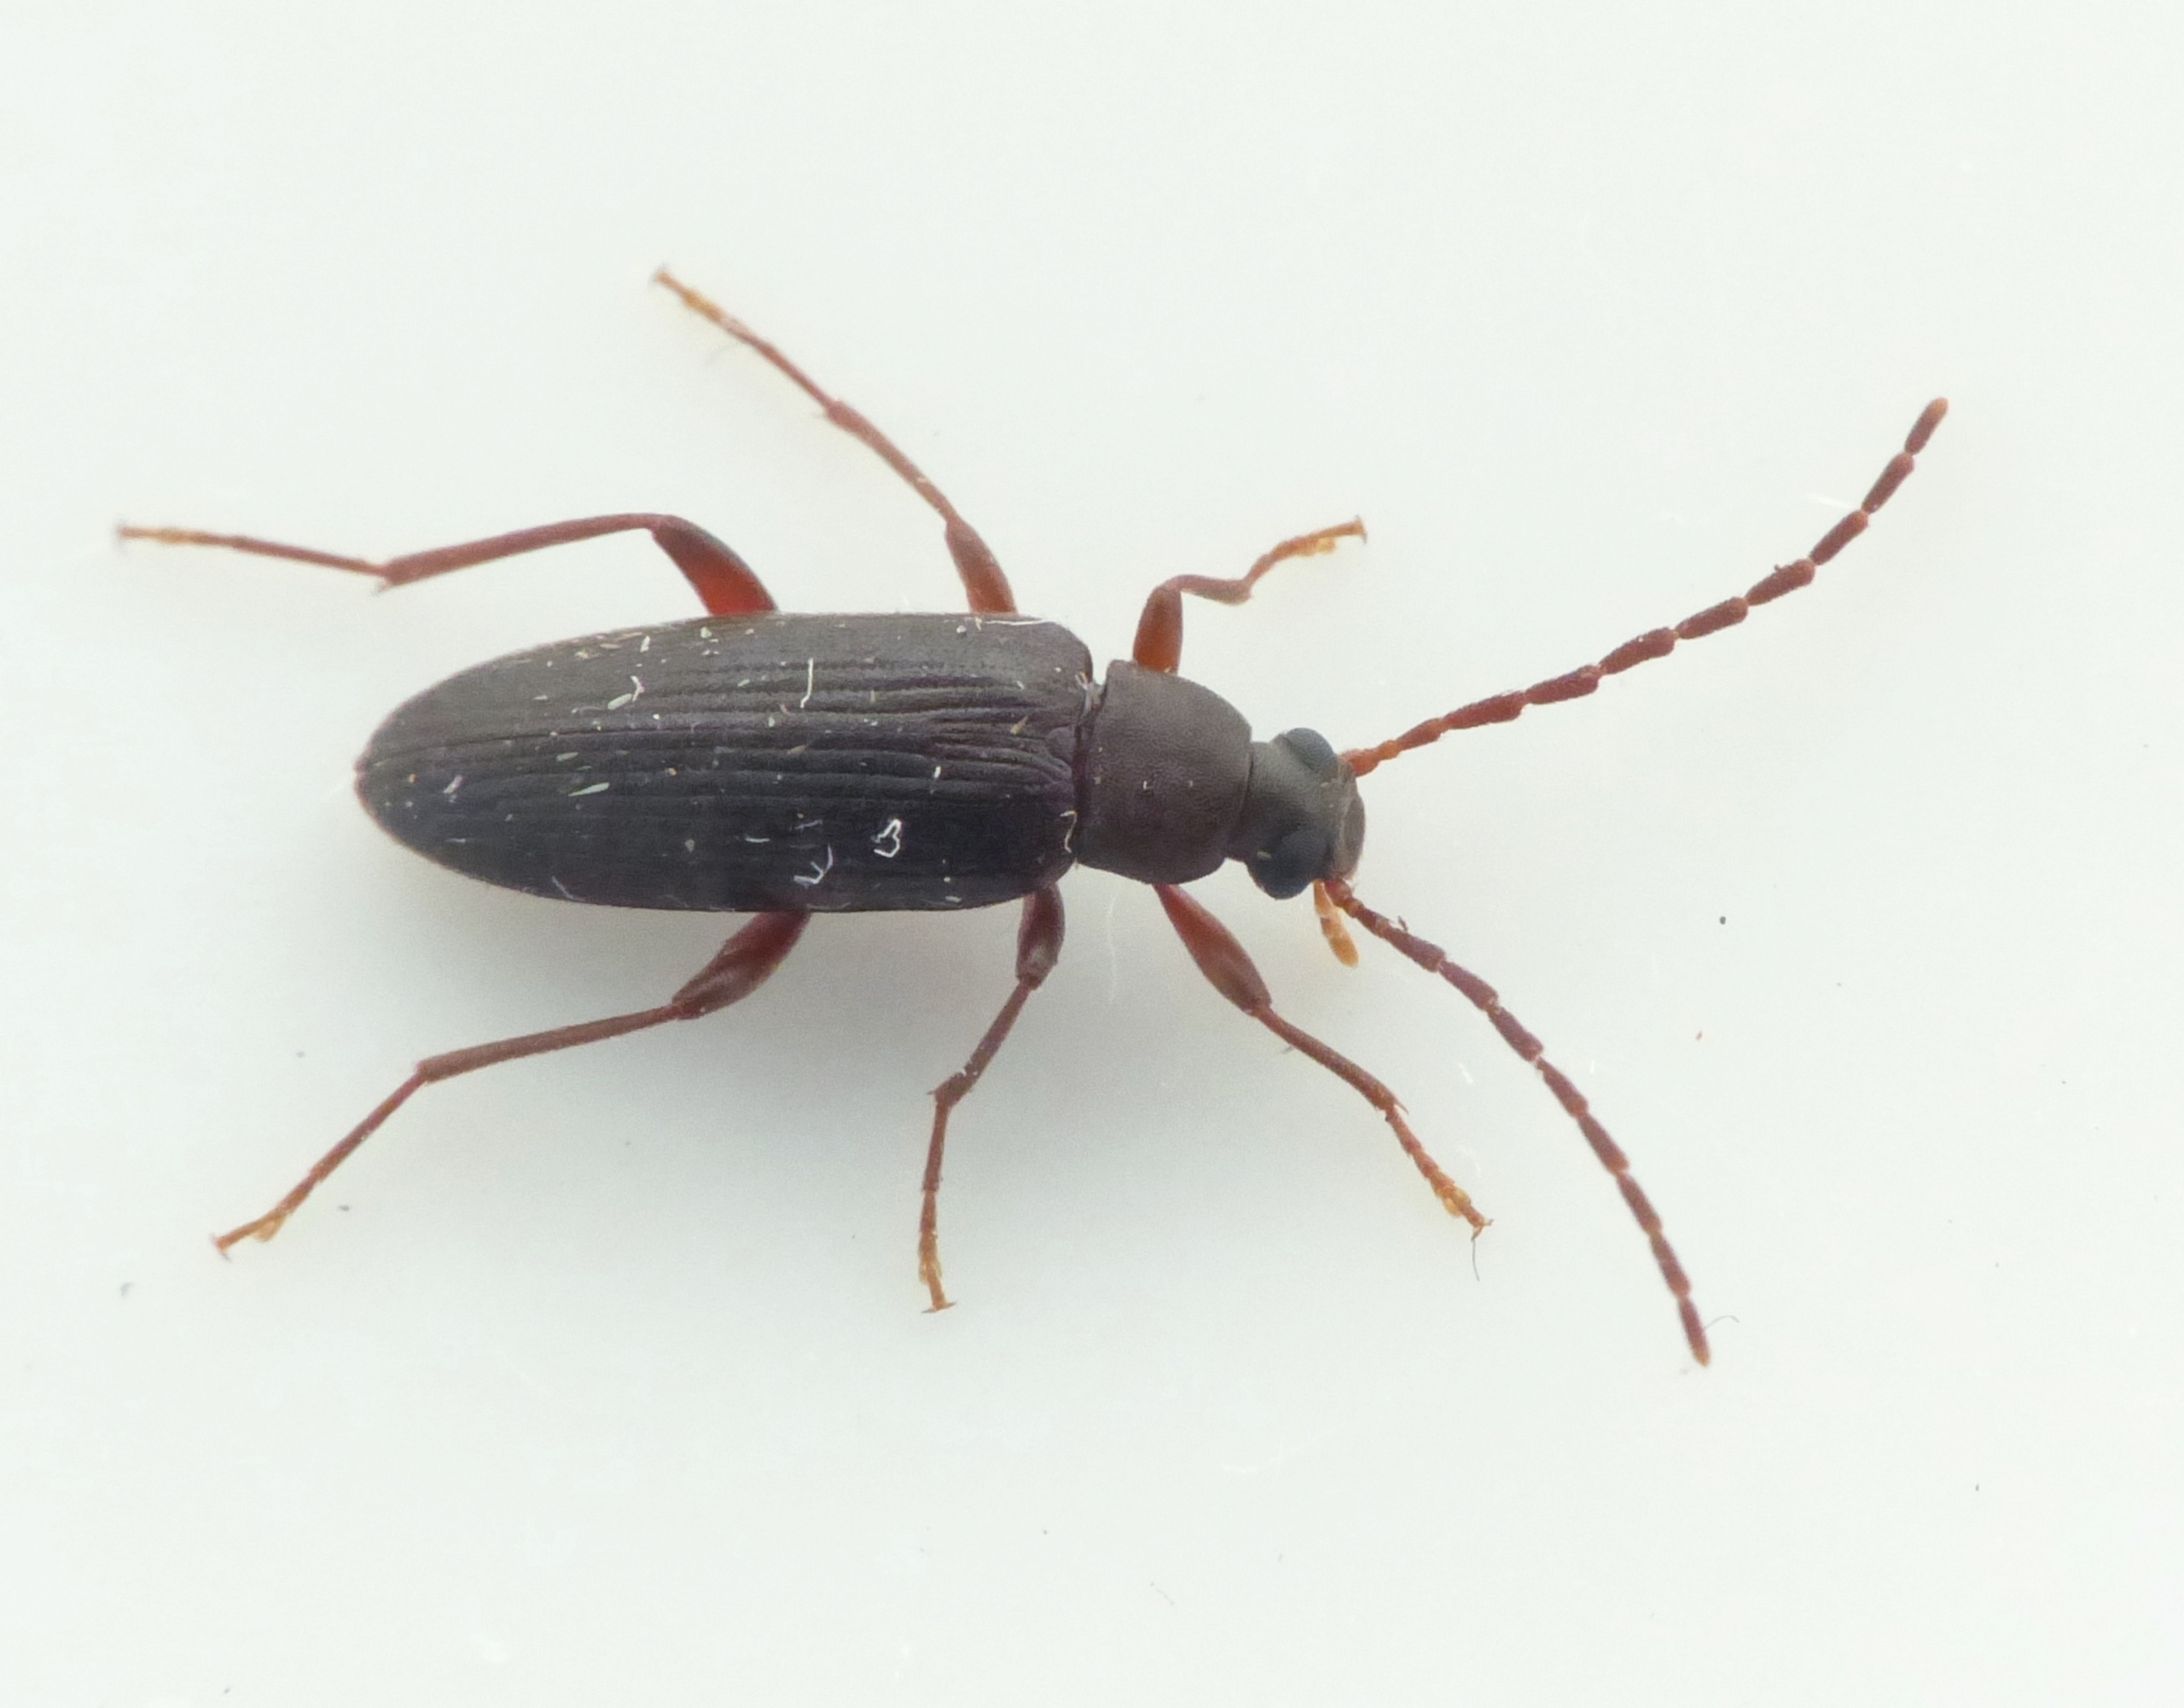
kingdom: Animalia
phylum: Arthropoda
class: Insecta
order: Coleoptera
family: Tenebrionidae
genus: Allecula
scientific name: Allecula morio
